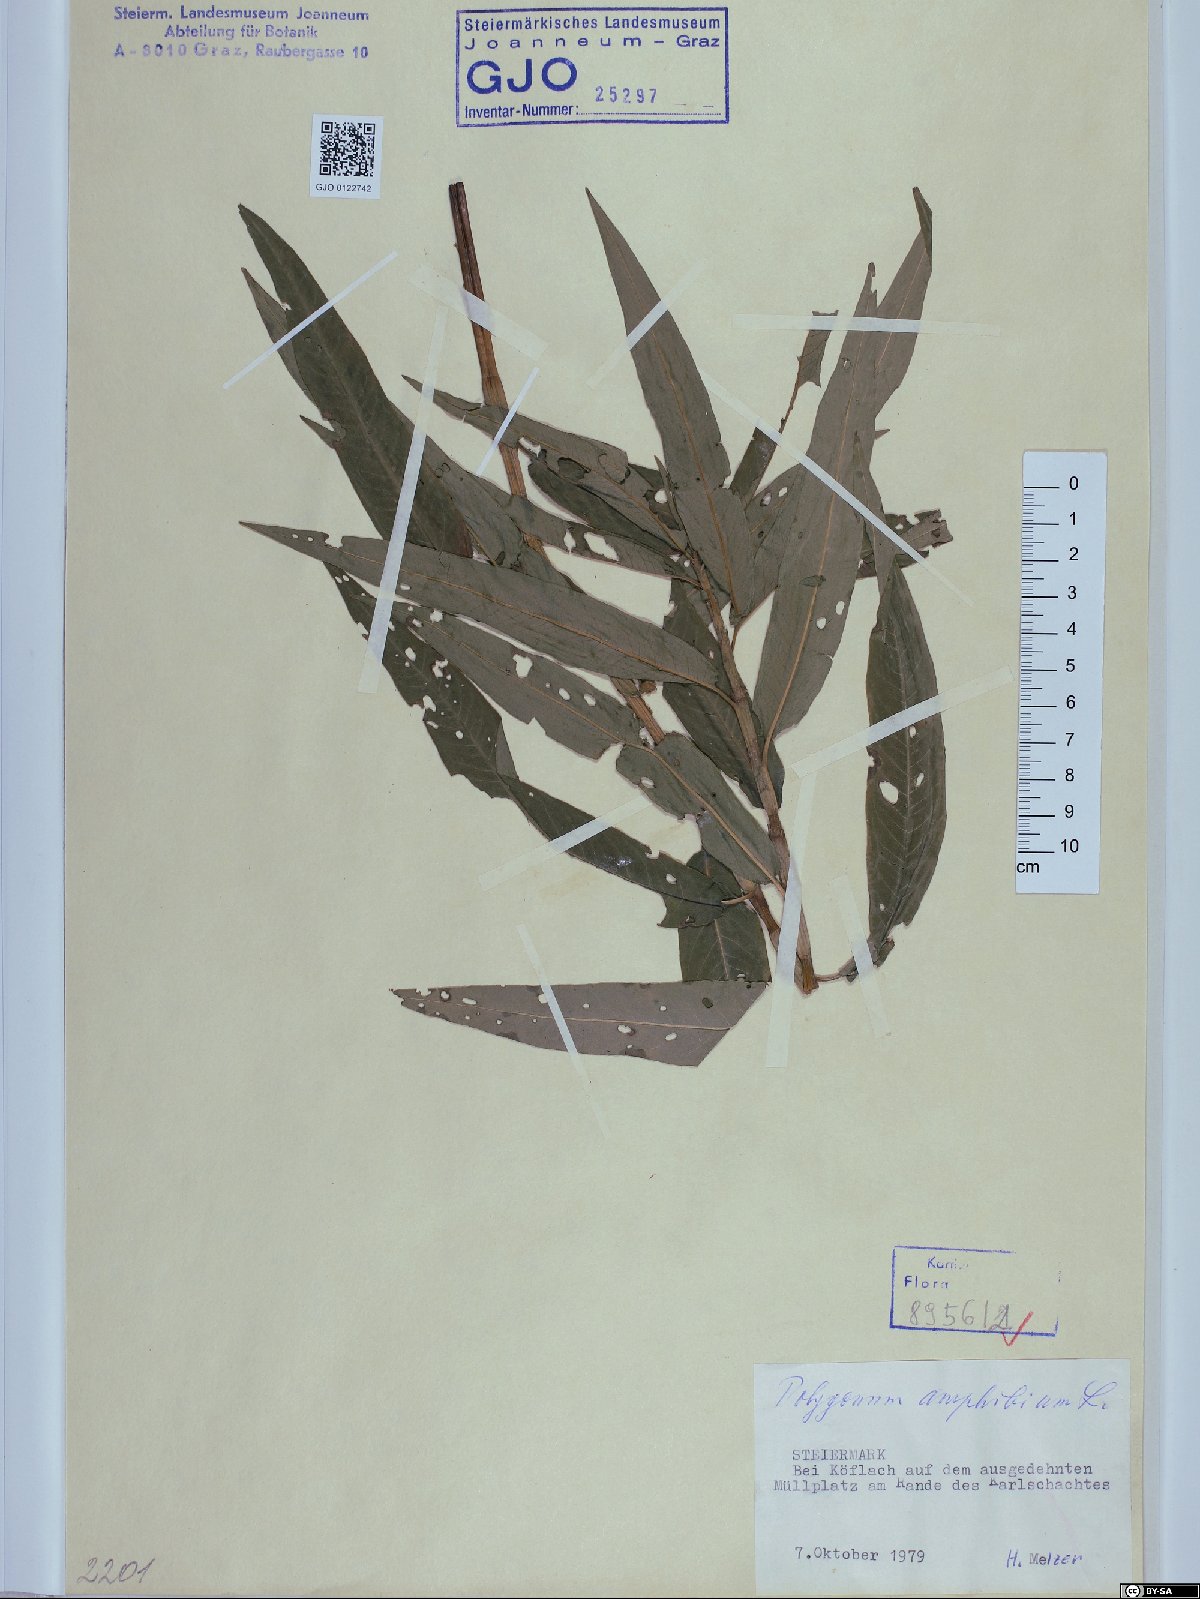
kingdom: Plantae
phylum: Tracheophyta
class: Magnoliopsida
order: Caryophyllales
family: Polygonaceae
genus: Persicaria
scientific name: Persicaria amphibia
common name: Amphibious bistort
